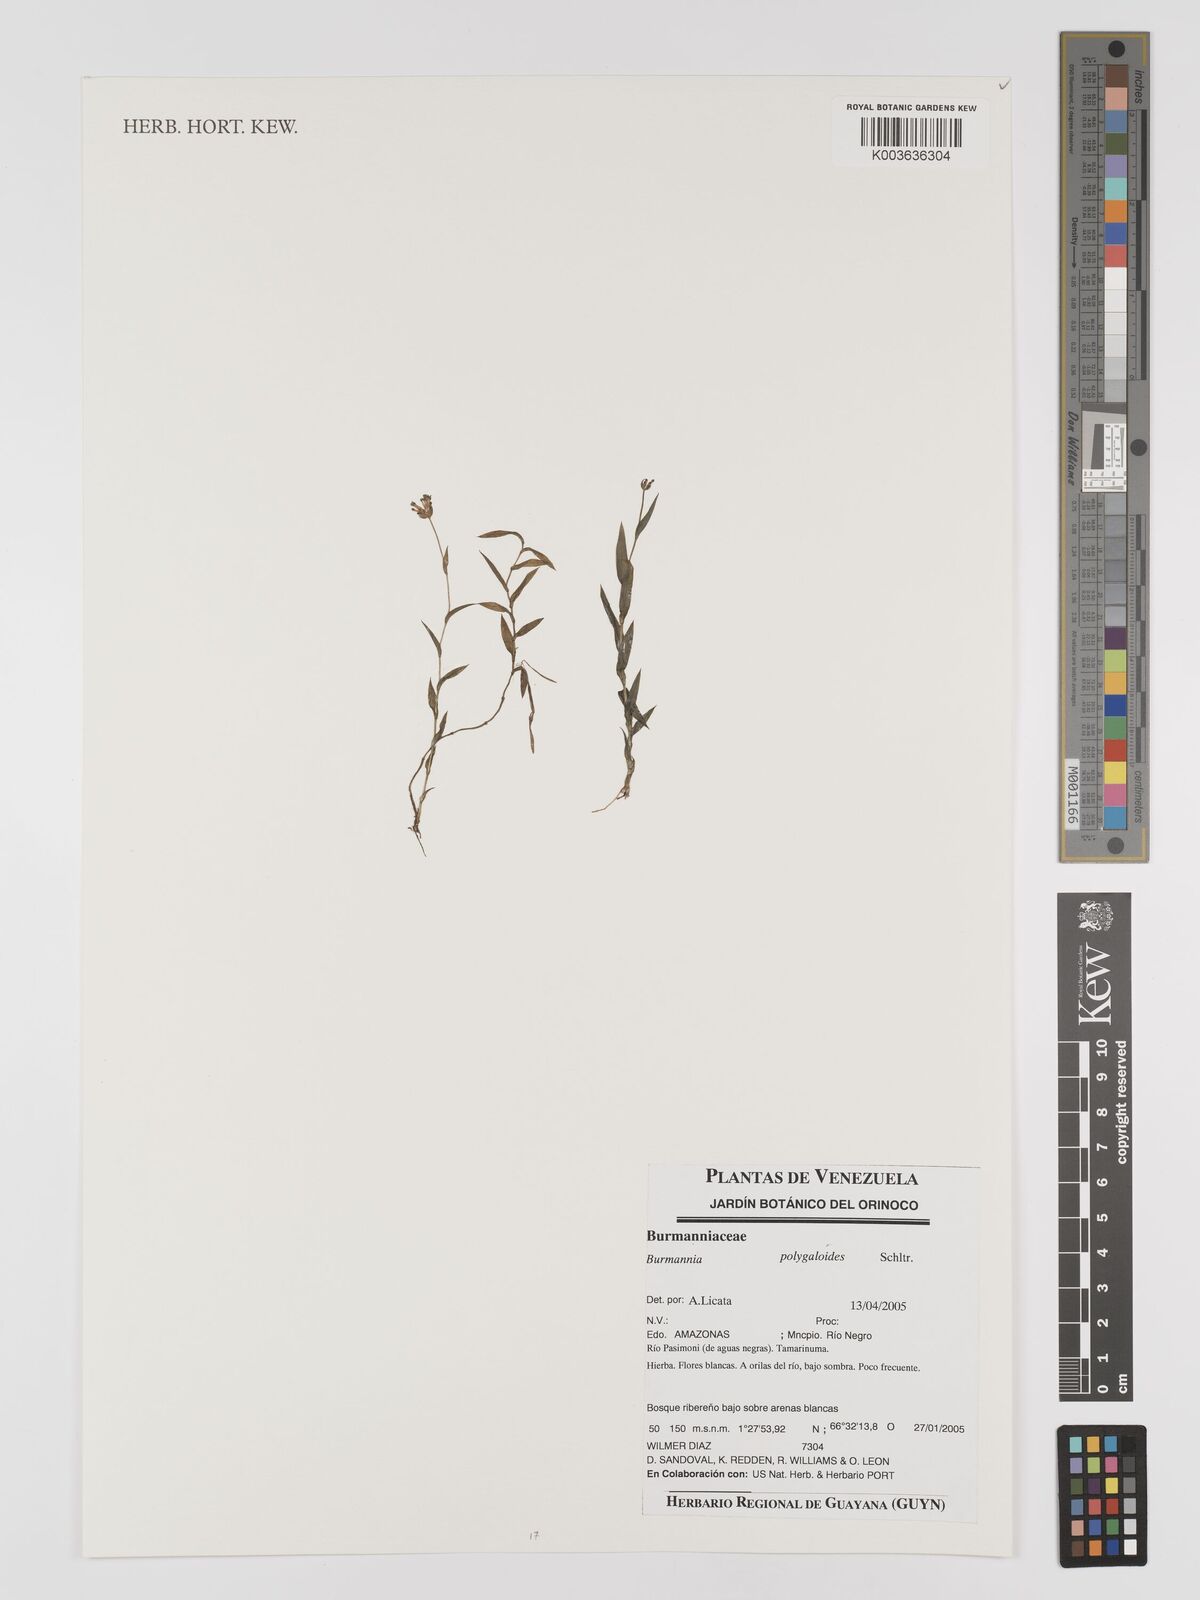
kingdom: Plantae
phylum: Tracheophyta
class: Liliopsida
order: Dioscoreales
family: Burmanniaceae
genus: Burmannia
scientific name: Burmannia polygaloides
